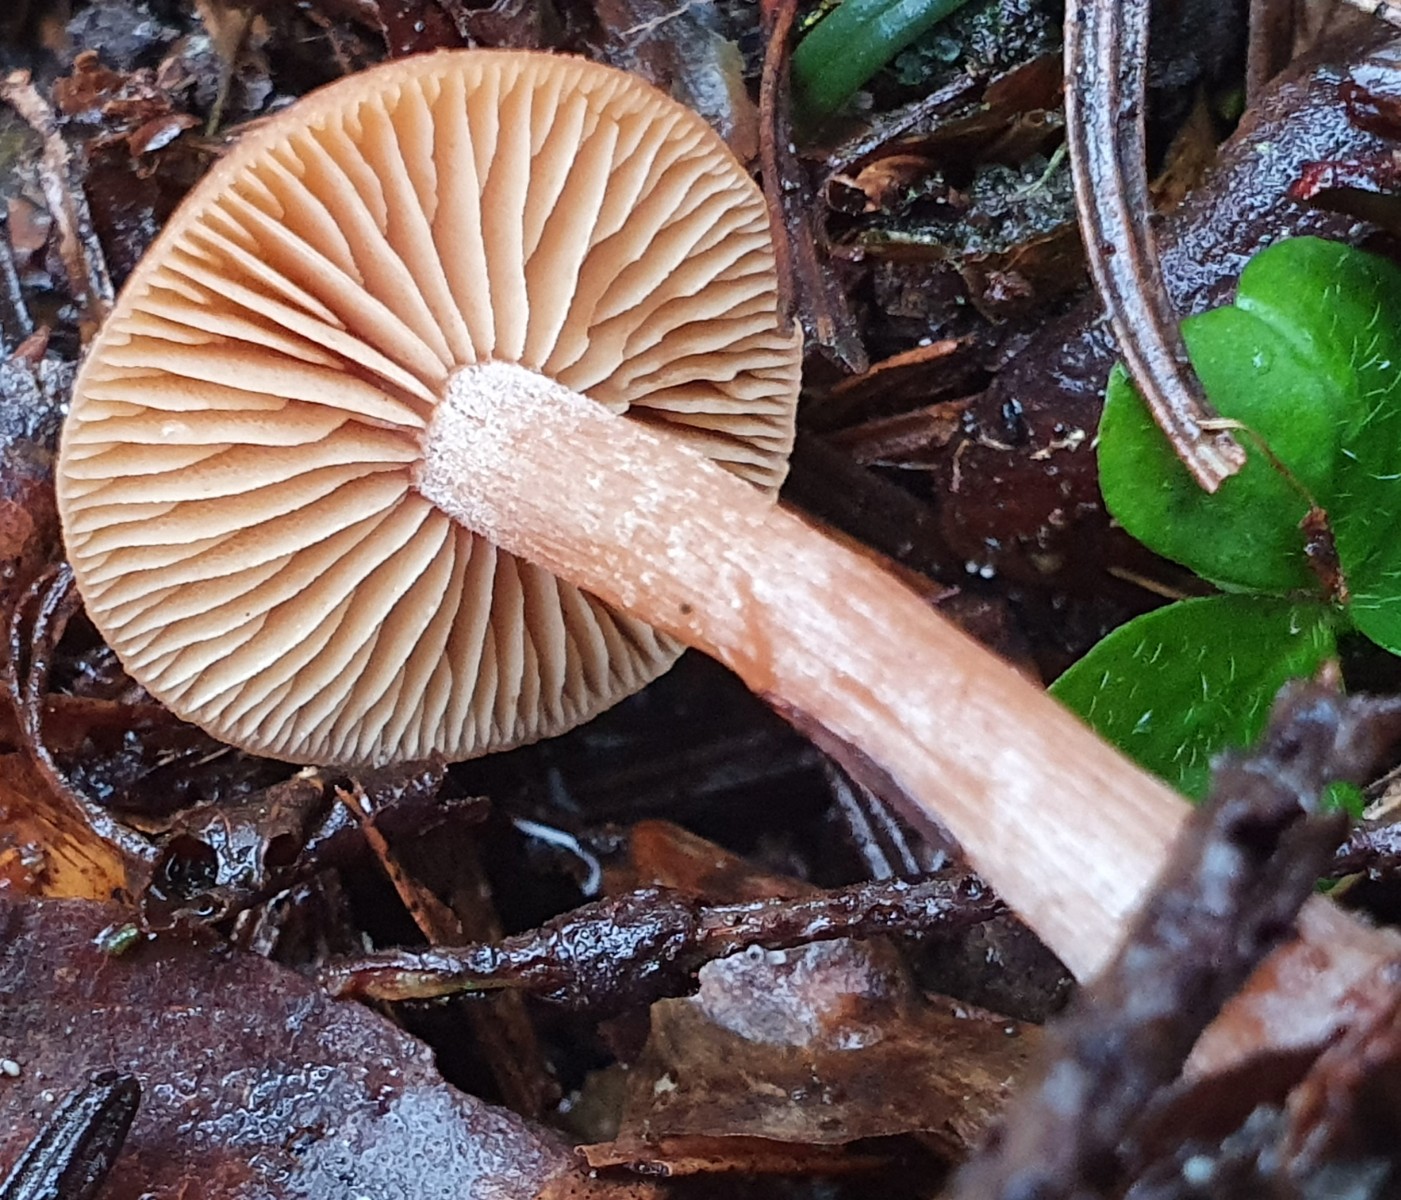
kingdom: Fungi
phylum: Basidiomycota
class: Agaricomycetes
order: Agaricales
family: Tubariaceae
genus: Tubaria
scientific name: Tubaria furfuracea
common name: kliddet fnughat
